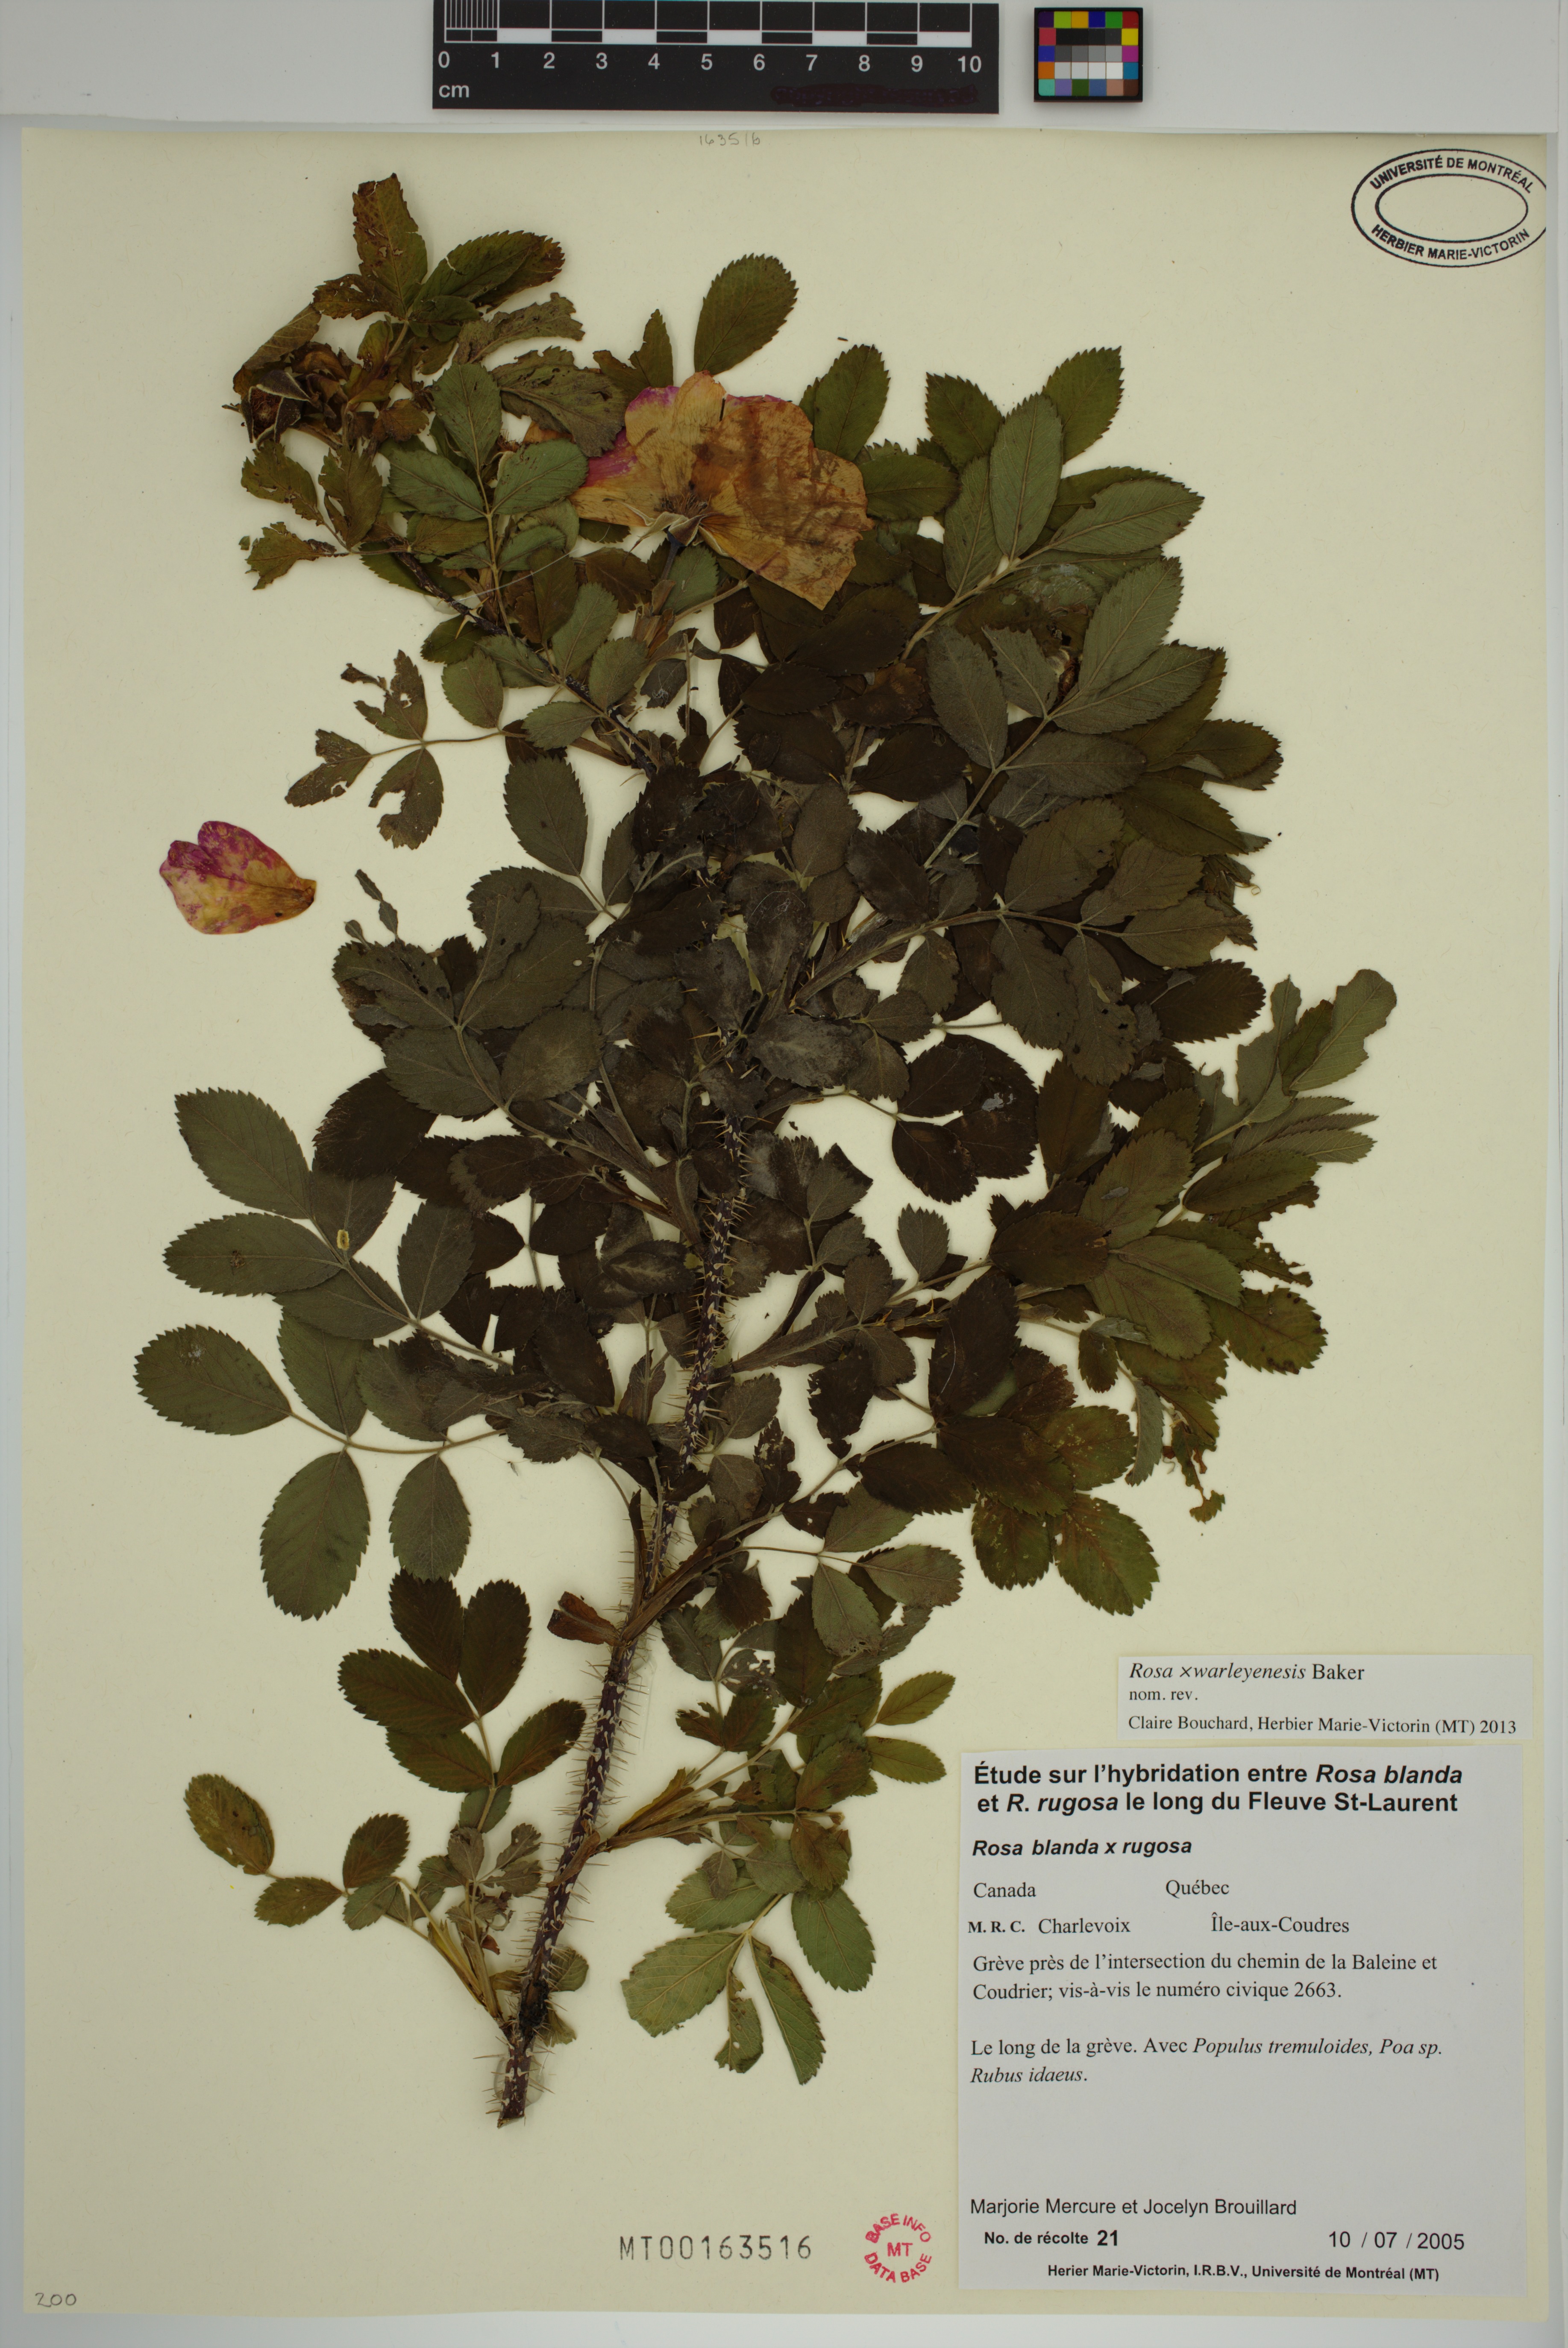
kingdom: Plantae
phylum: Tracheophyta
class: Magnoliopsida
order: Rosales
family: Rosaceae
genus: Rosa
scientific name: Rosa warleyensis
